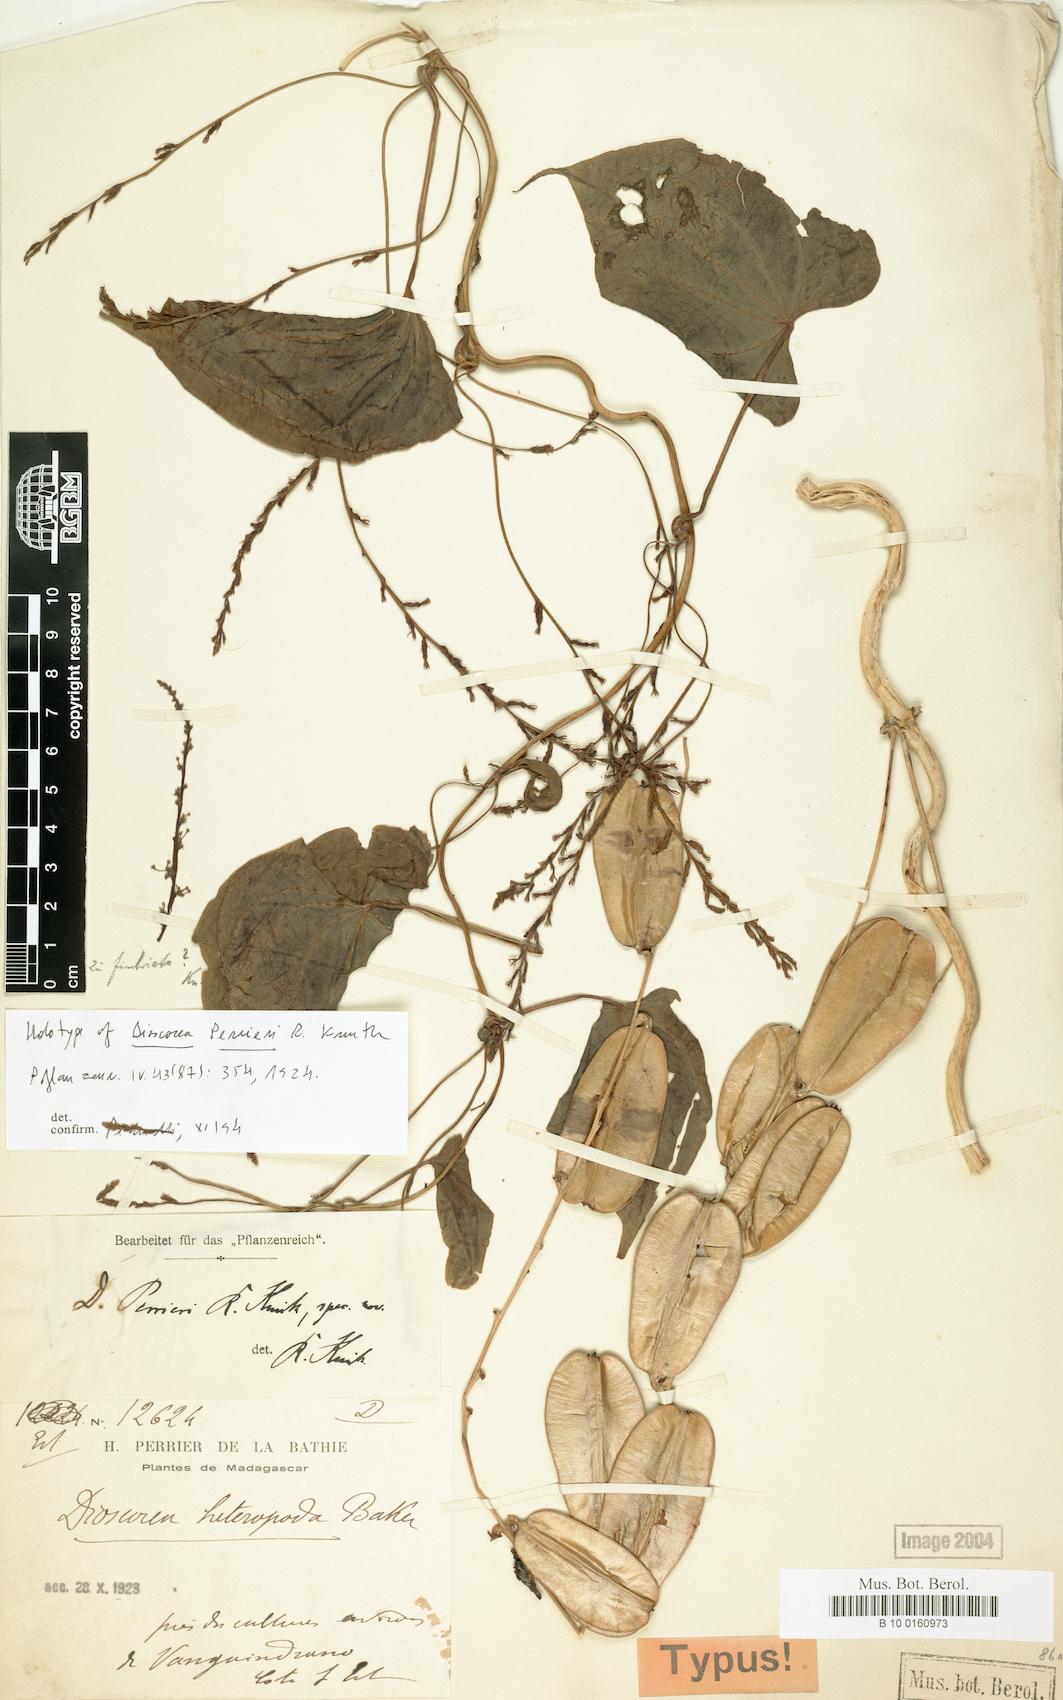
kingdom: Plantae
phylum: Tracheophyta
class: Liliopsida
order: Dioscoreales
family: Dioscoreaceae
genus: Dioscorea
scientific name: Dioscorea bulbifera
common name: Air yam
